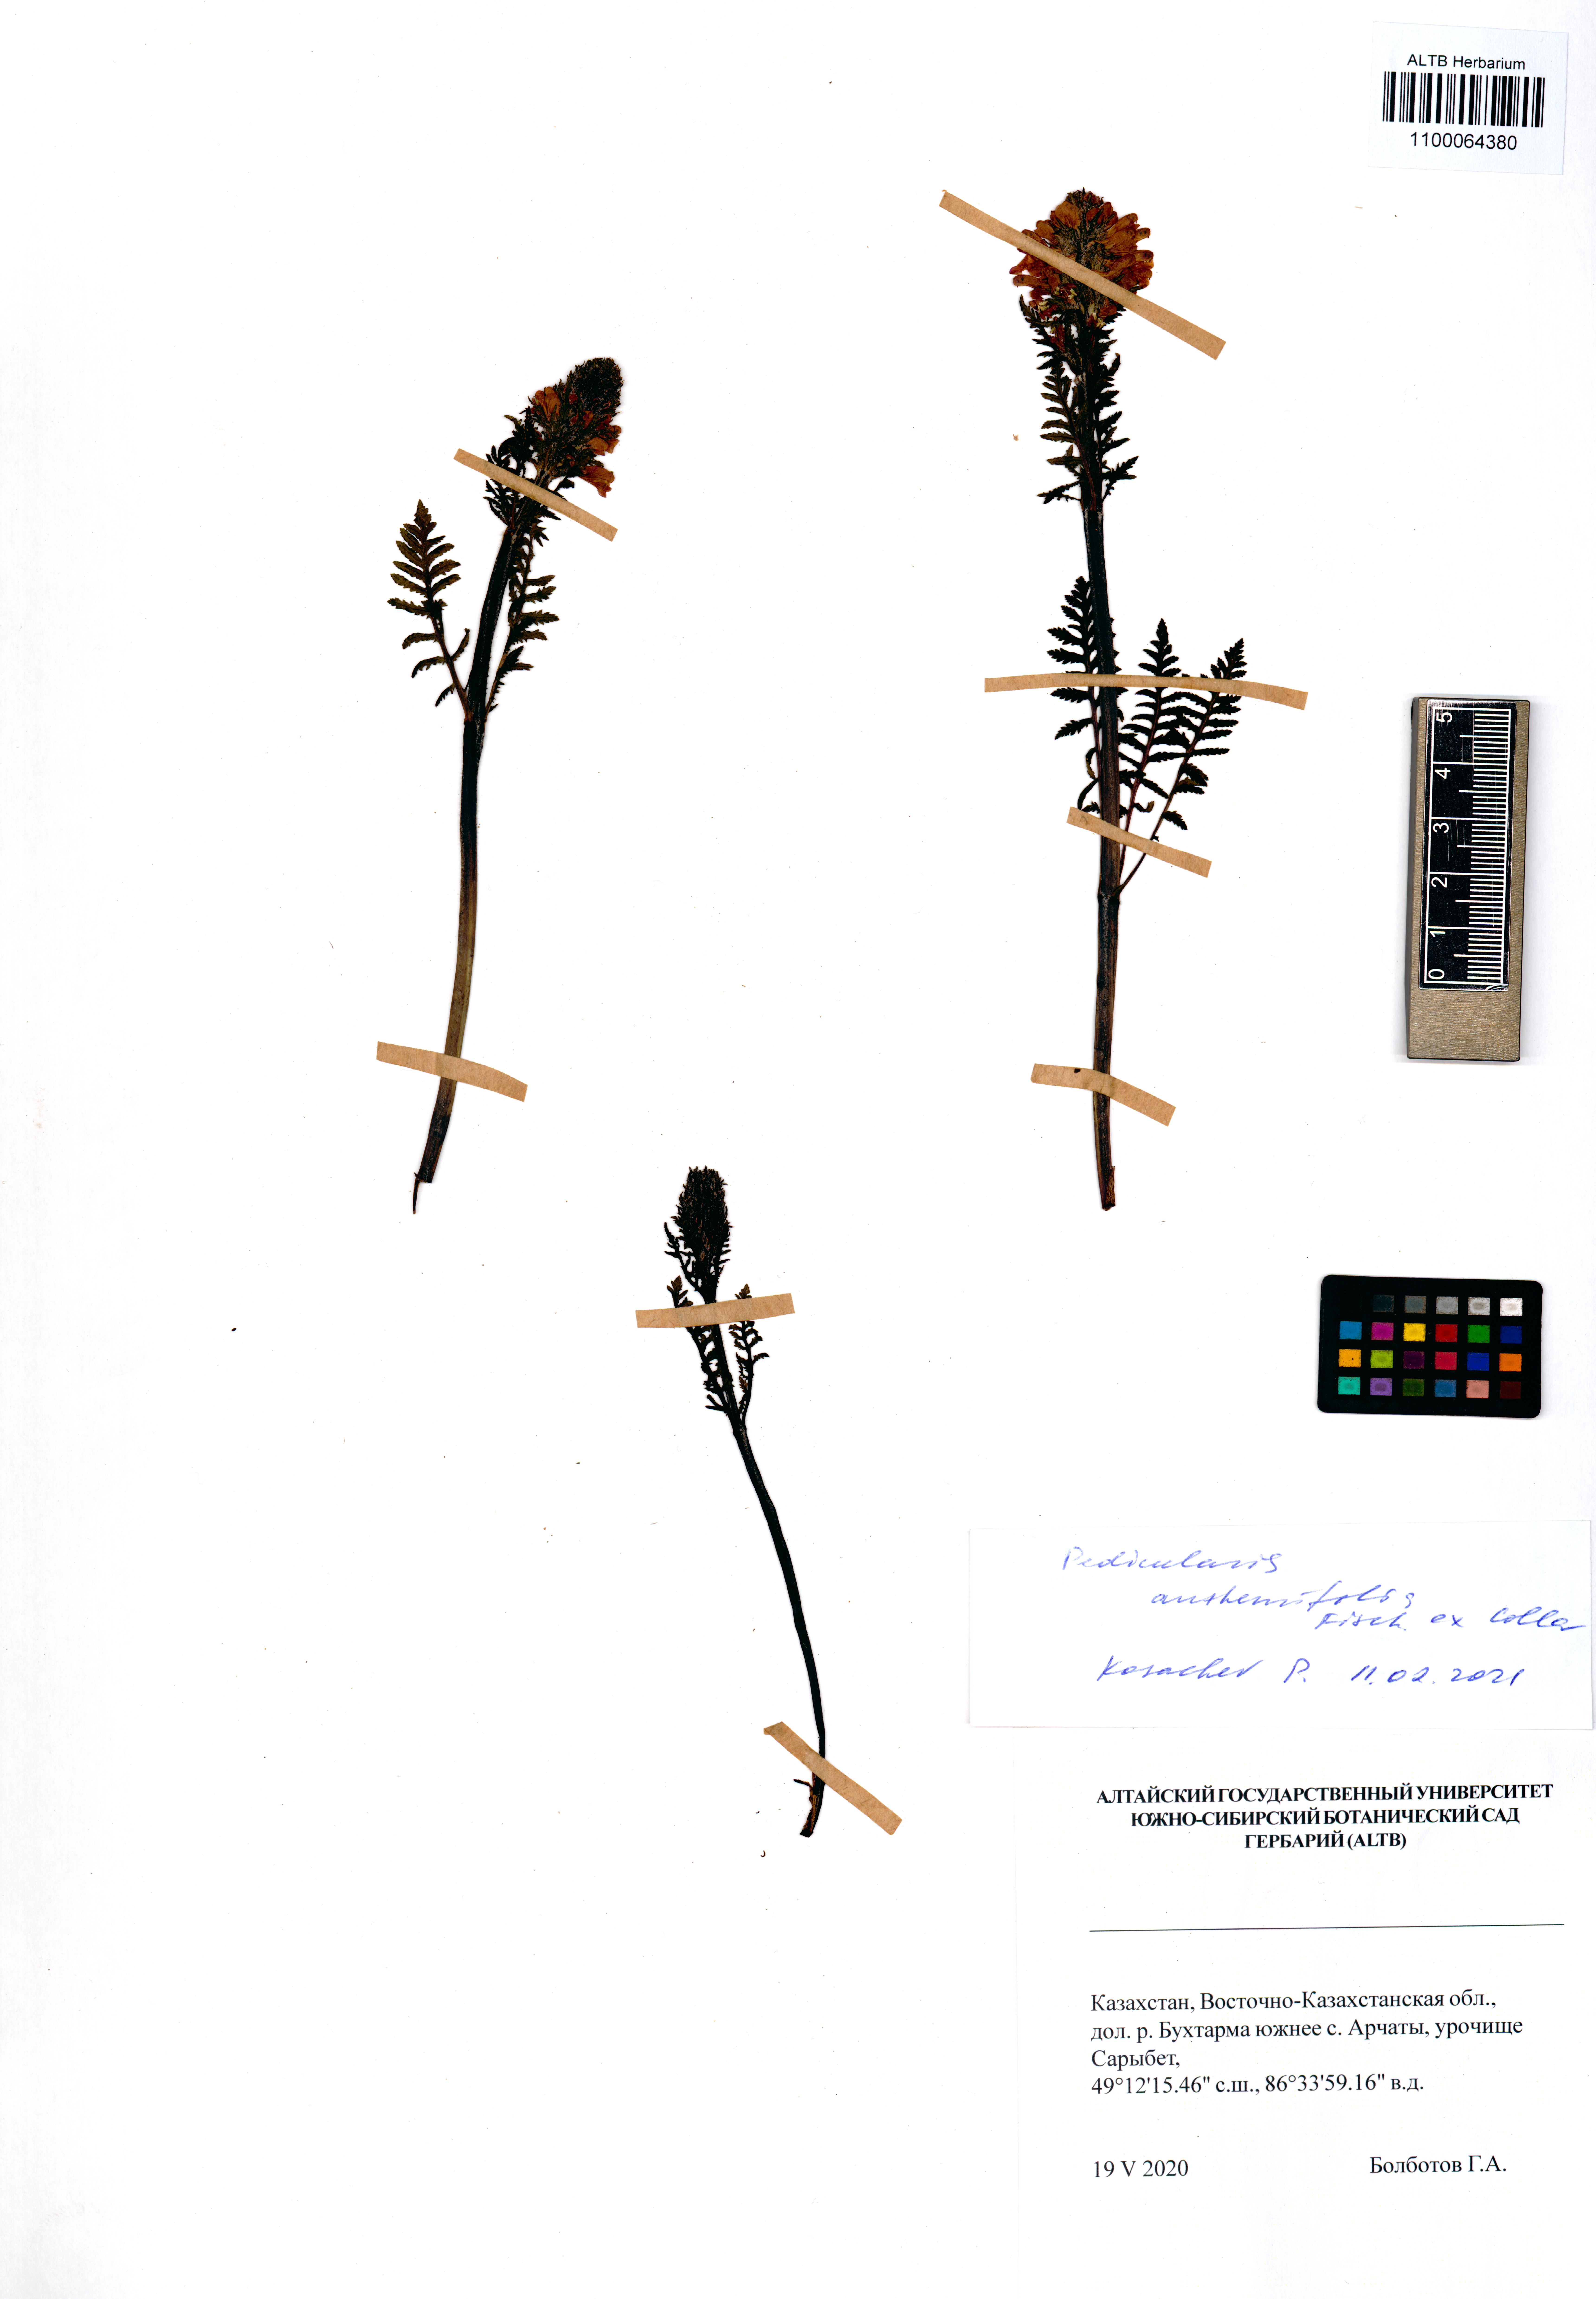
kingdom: Plantae
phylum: Tracheophyta
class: Magnoliopsida
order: Lamiales
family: Orobanchaceae
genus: Pedicularis
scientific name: Pedicularis anthemifolia
